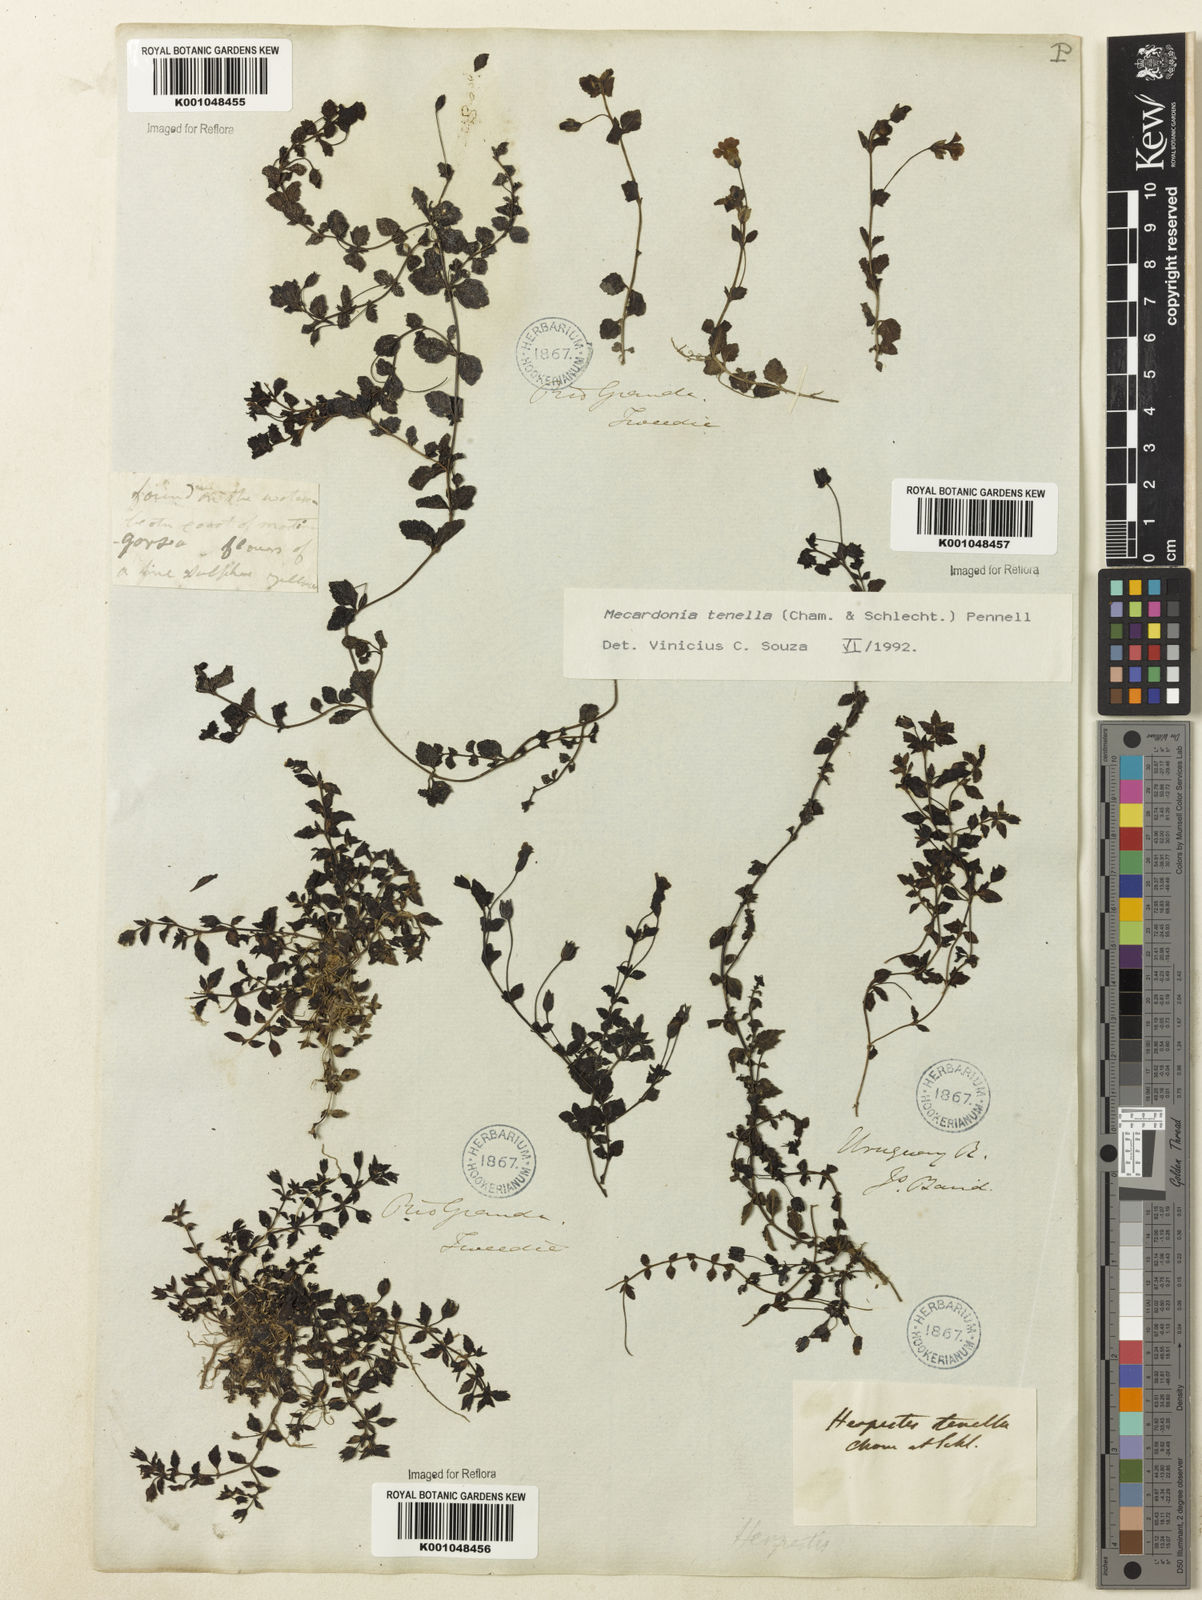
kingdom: Plantae
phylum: Tracheophyta
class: Magnoliopsida
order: Lamiales
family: Plantaginaceae
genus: Mecardonia
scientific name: Mecardonia procumbens
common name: Baby jump-up
